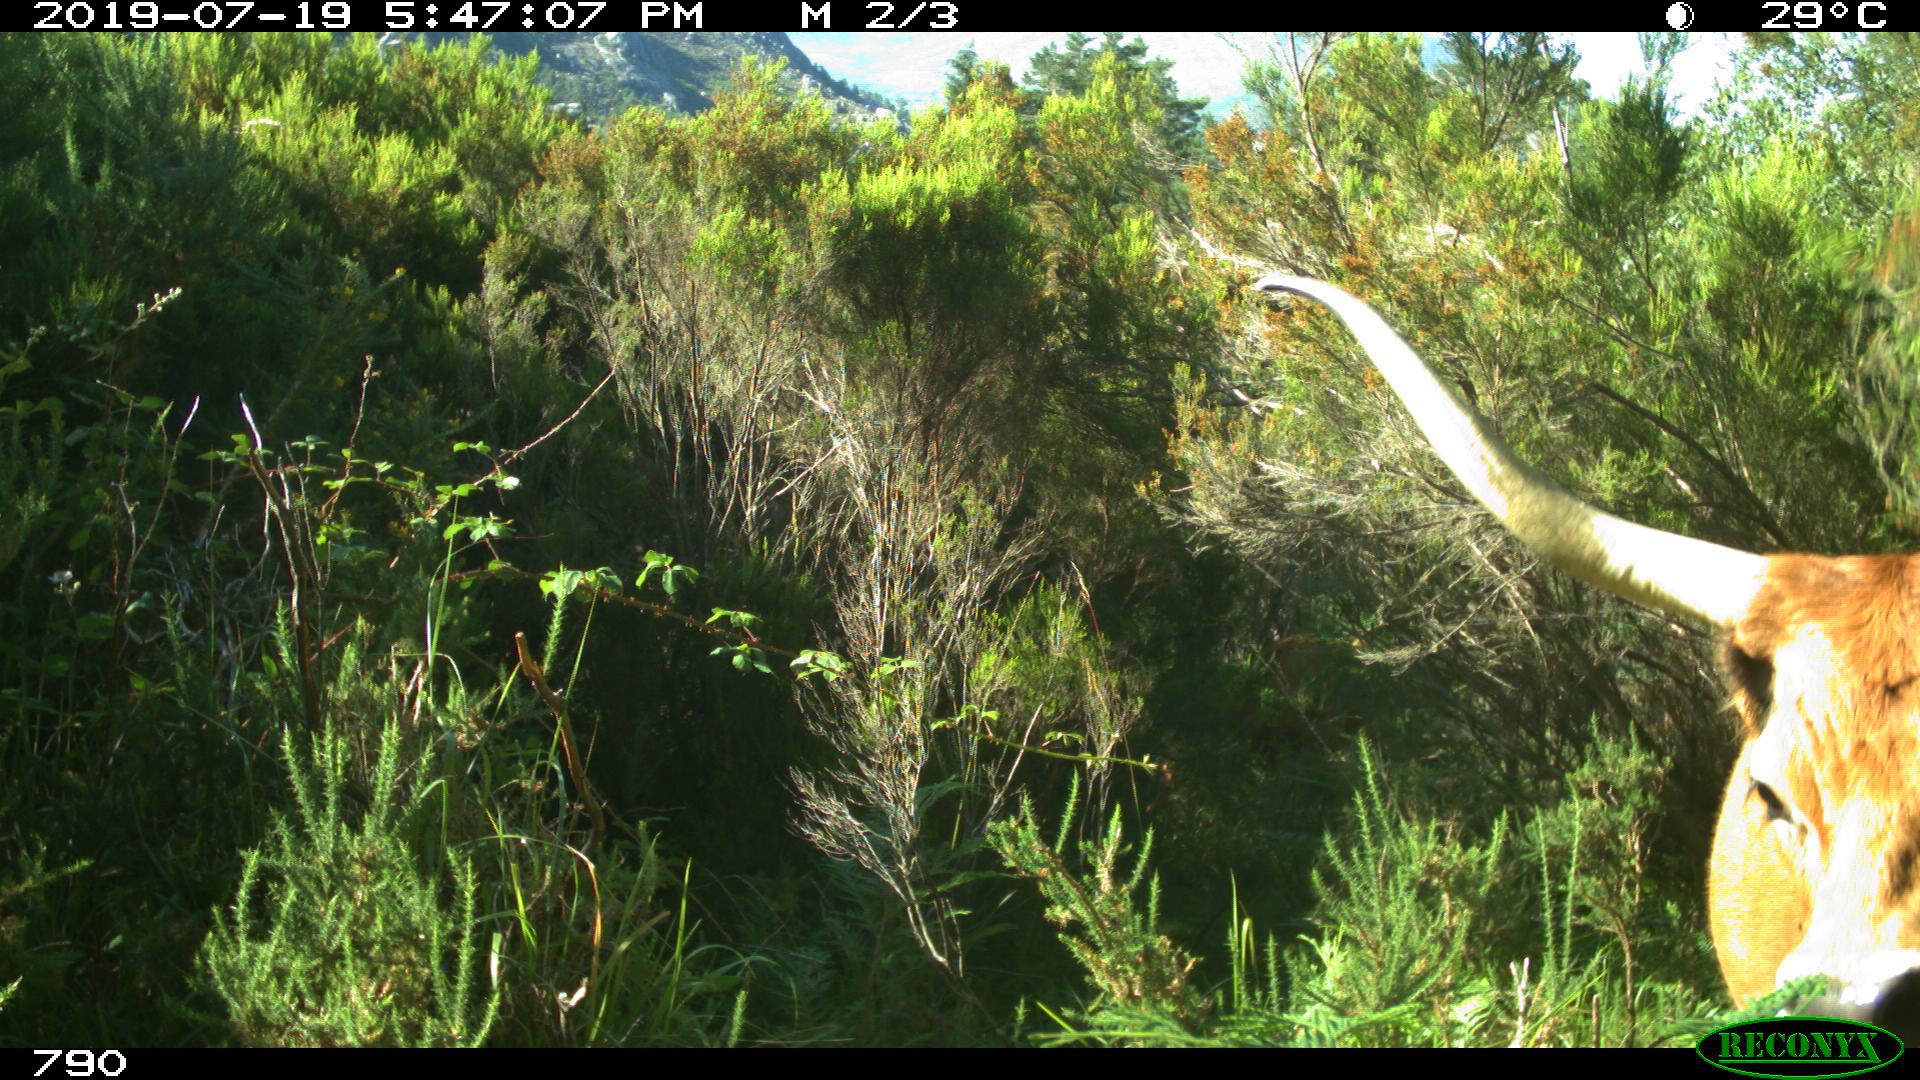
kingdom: Animalia
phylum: Chordata
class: Mammalia
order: Artiodactyla
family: Bovidae
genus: Bos
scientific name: Bos taurus
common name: Domesticated cattle
